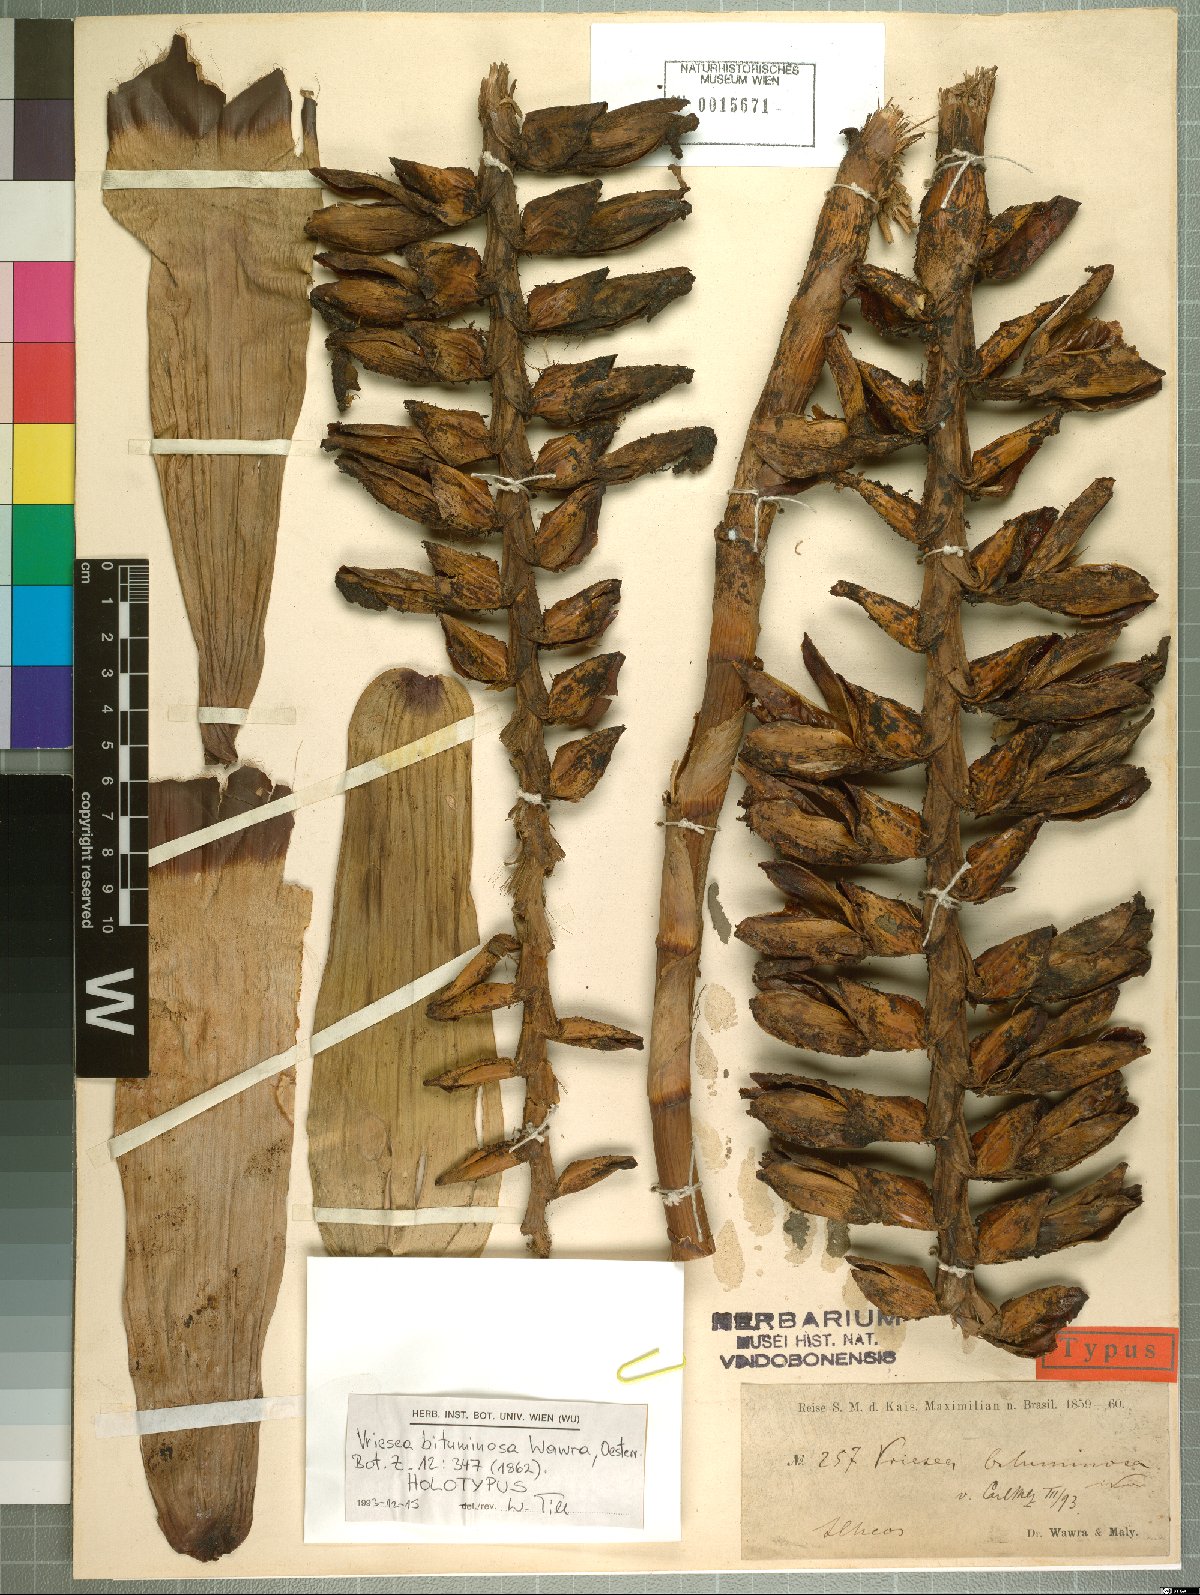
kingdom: Plantae
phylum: Tracheophyta
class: Liliopsida
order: Poales
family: Bromeliaceae
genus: Vriesea
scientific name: Vriesea bituminosa
